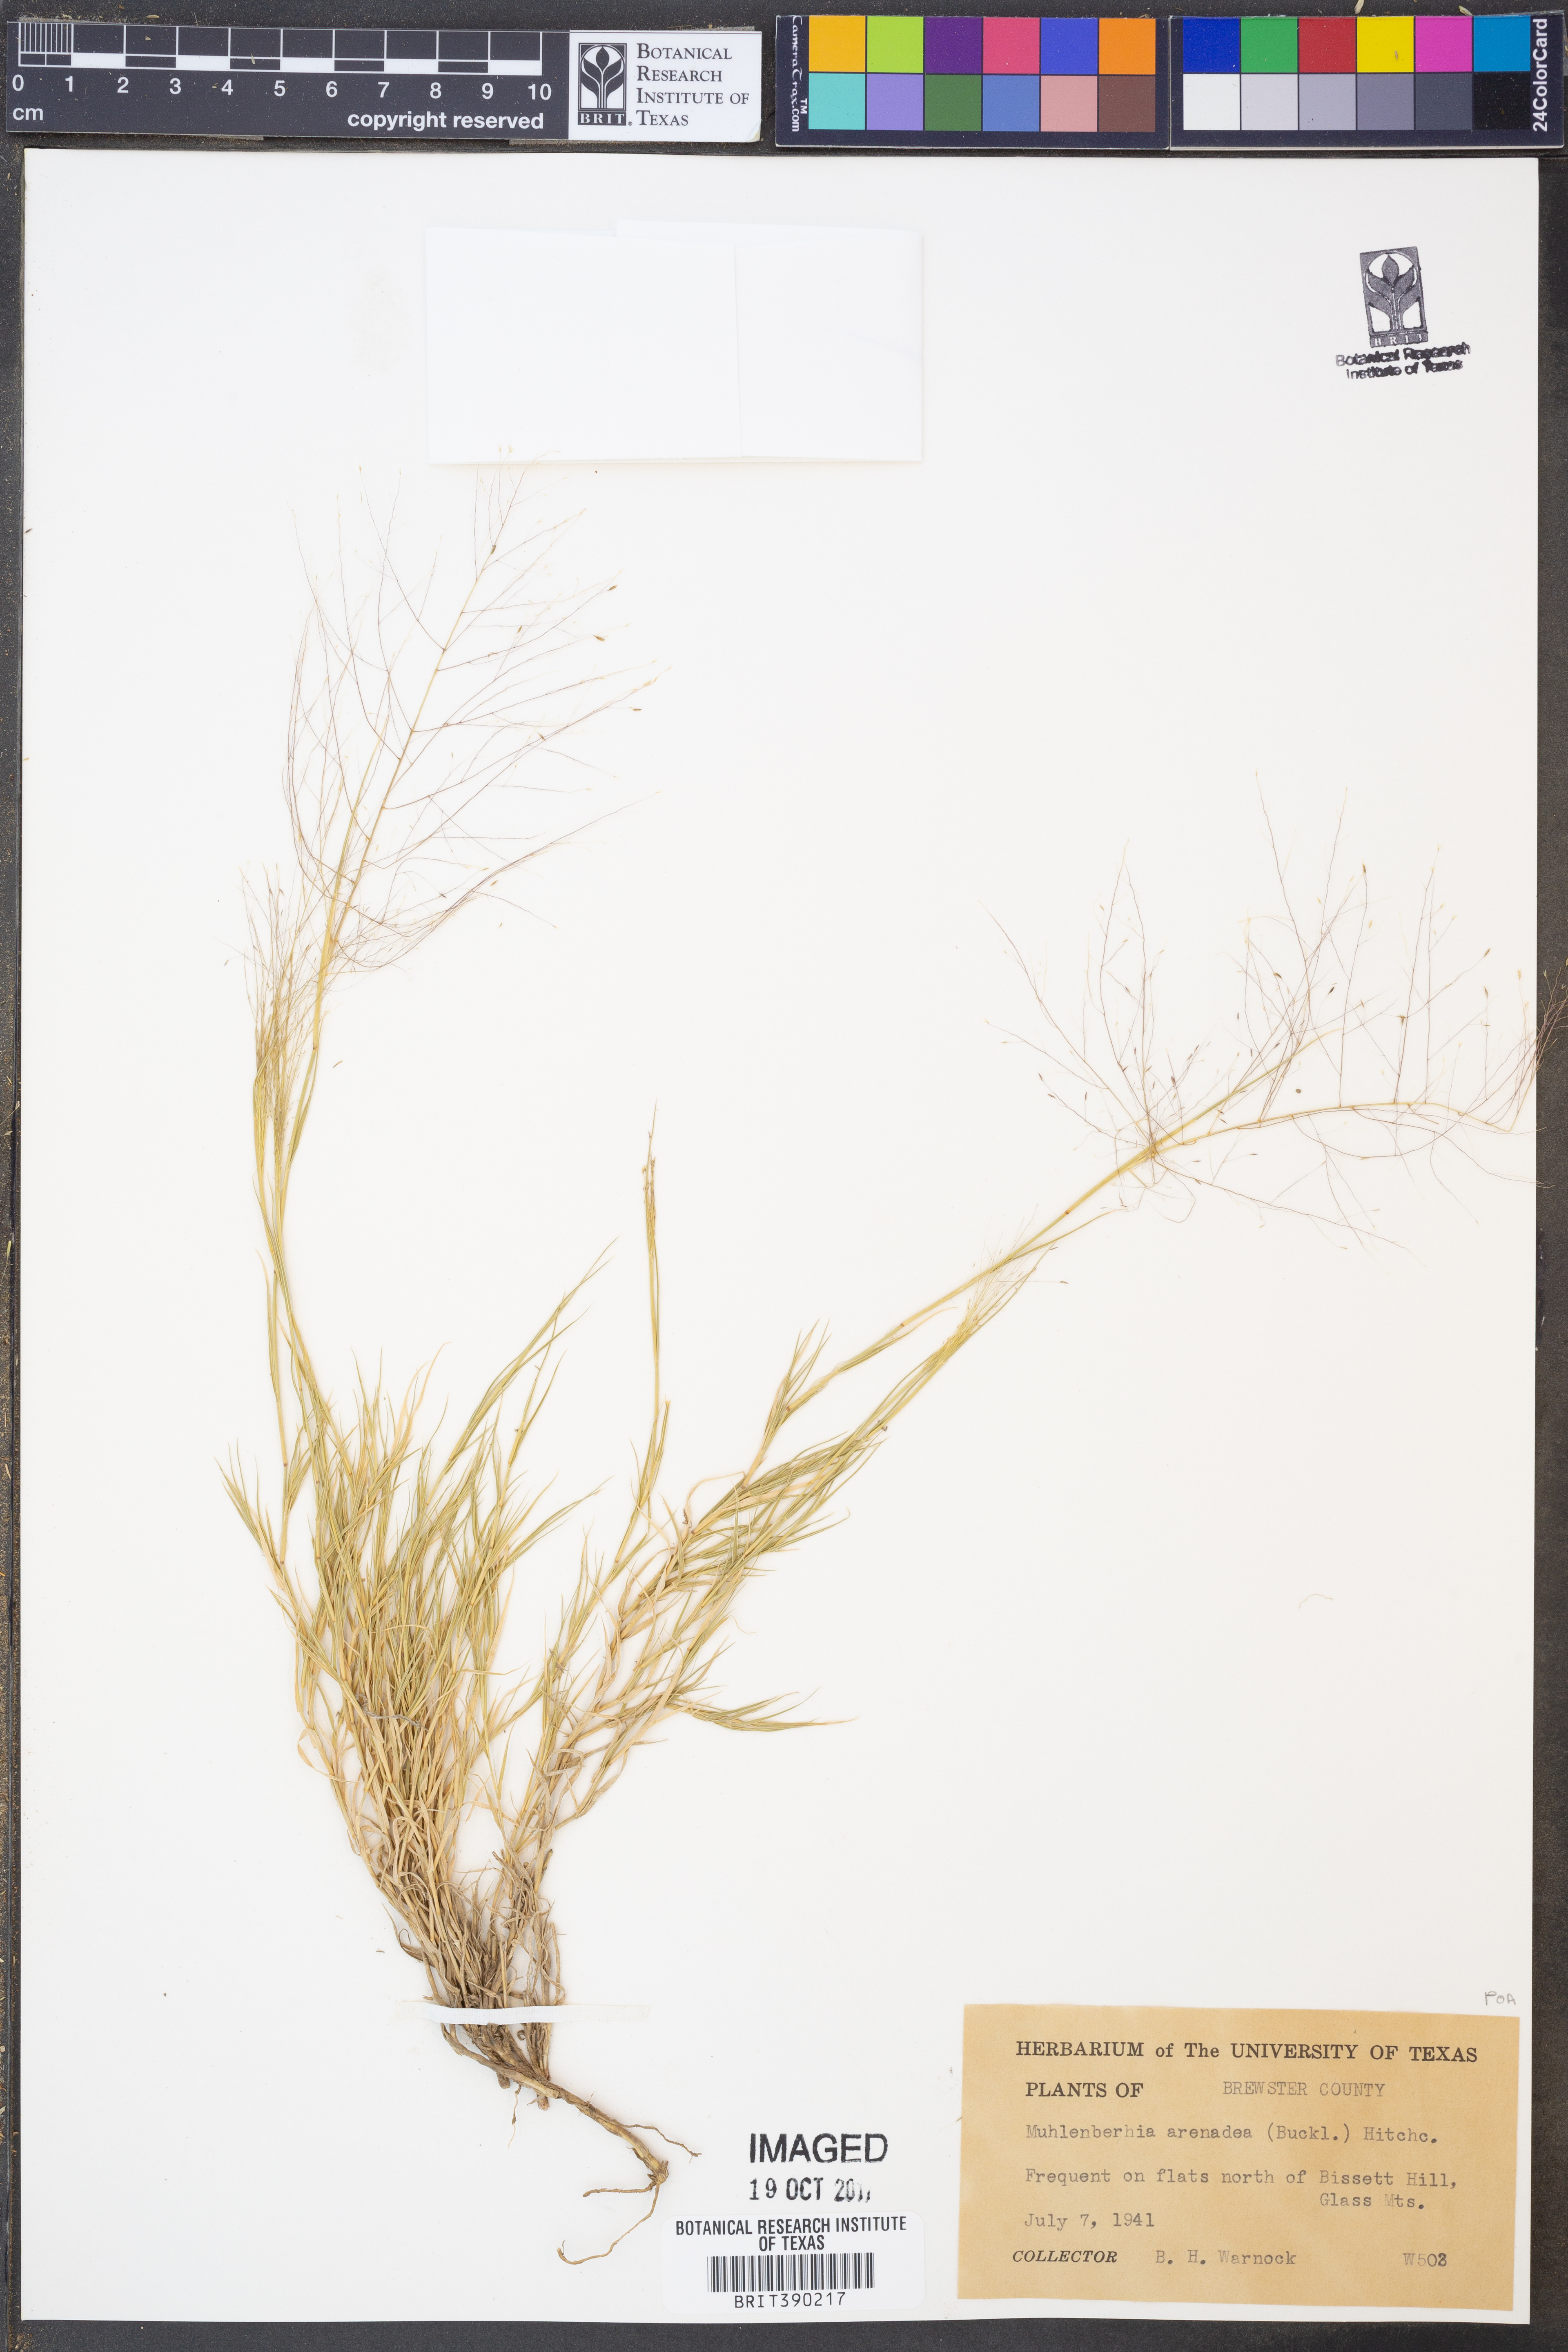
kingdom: Plantae
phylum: Tracheophyta
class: Liliopsida
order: Poales
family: Poaceae
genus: Muhlenbergia
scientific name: Muhlenbergia arenacea
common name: Ear muhly
